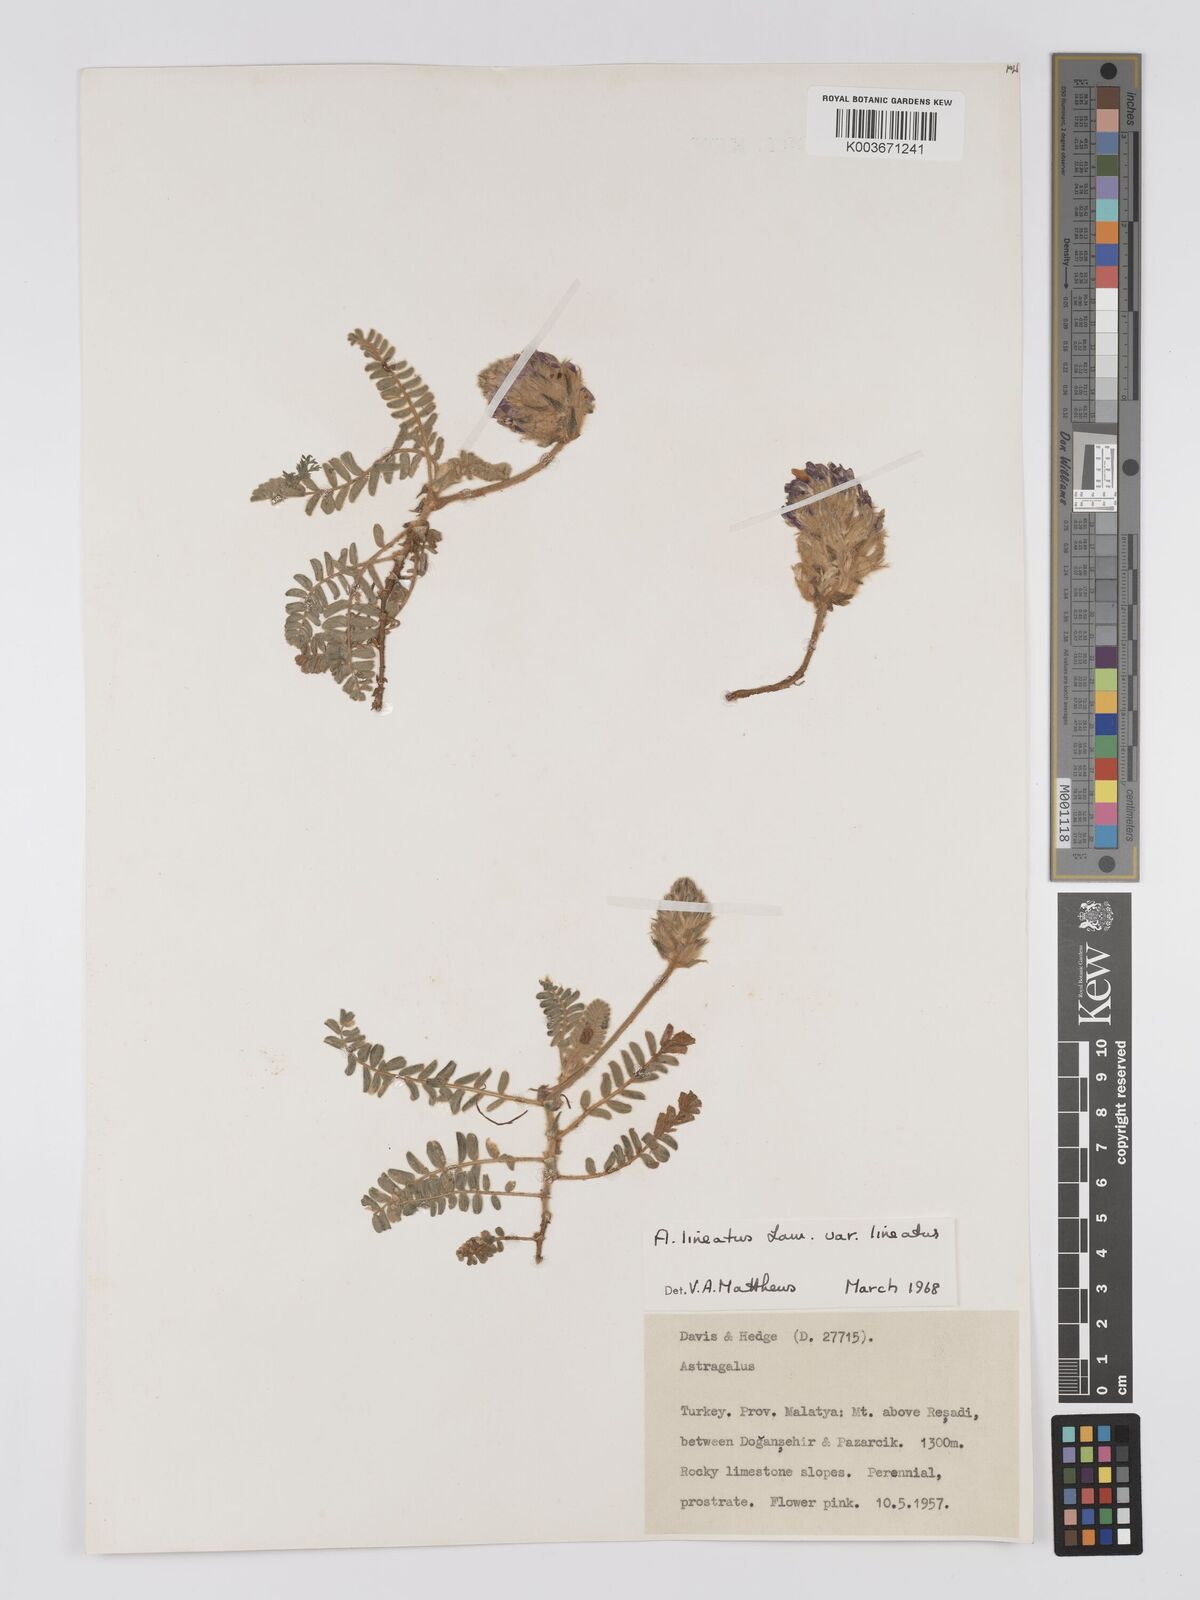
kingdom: Plantae
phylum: Tracheophyta
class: Magnoliopsida
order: Fabales
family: Fabaceae
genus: Astragalus
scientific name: Astragalus lineatus
